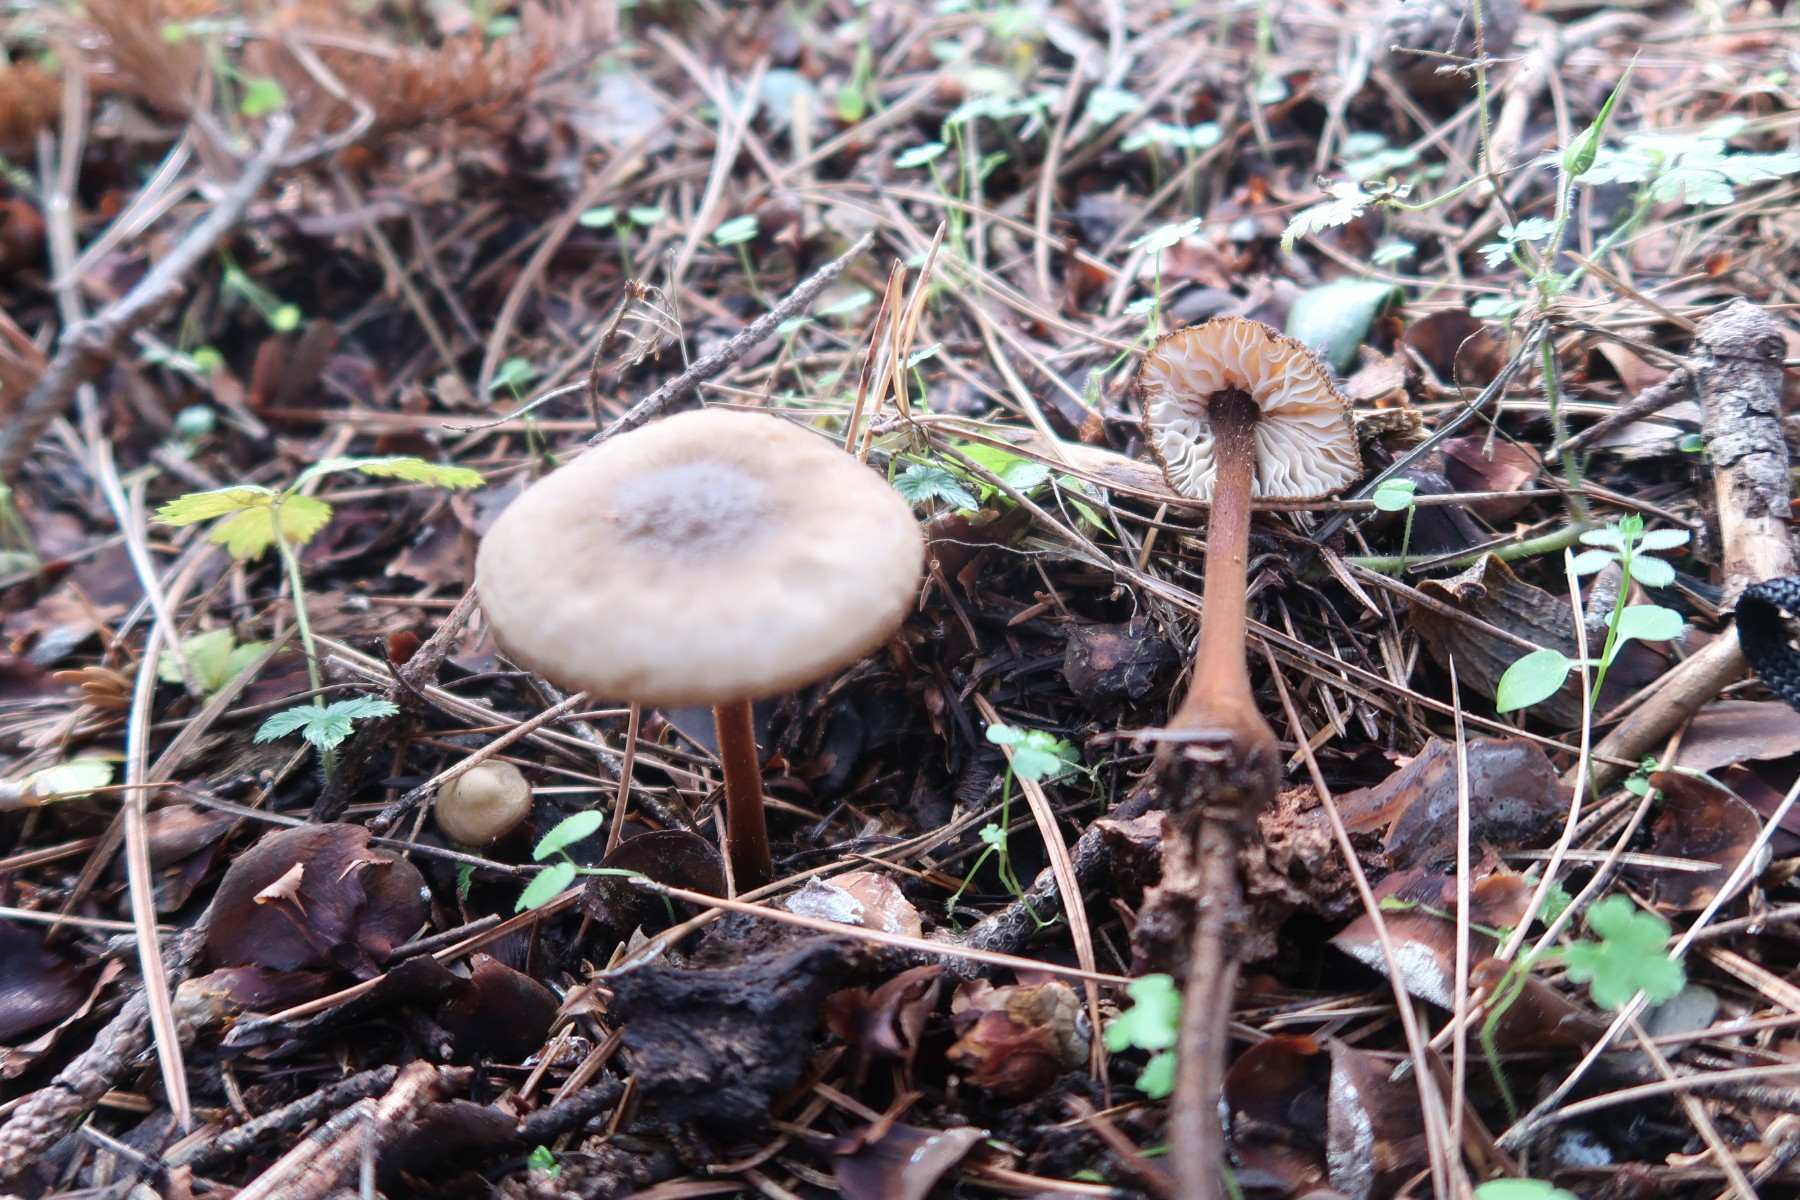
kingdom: Fungi
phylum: Basidiomycota
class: Agaricomycetes
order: Agaricales
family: Physalacriaceae
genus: Oudemansiella
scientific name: Oudemansiella melanotricha
